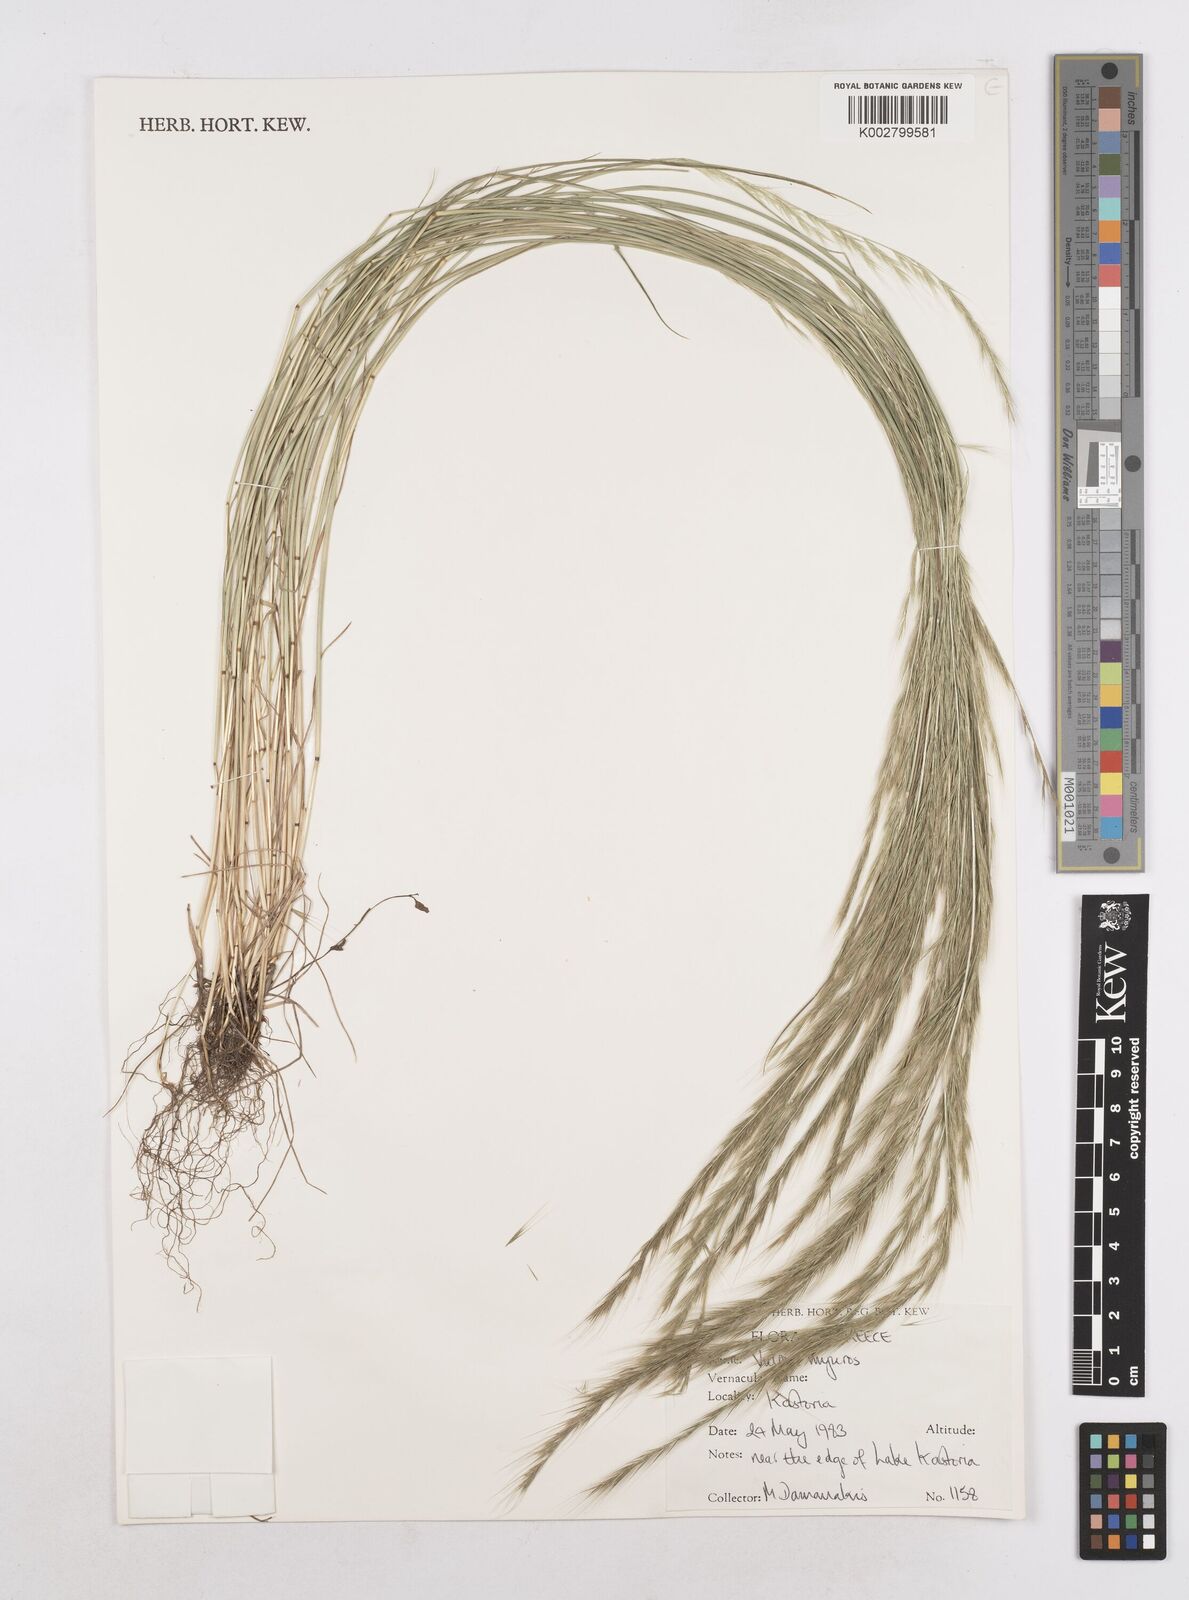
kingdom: Plantae
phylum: Tracheophyta
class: Liliopsida
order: Poales
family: Poaceae
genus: Festuca
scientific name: Festuca myuros
